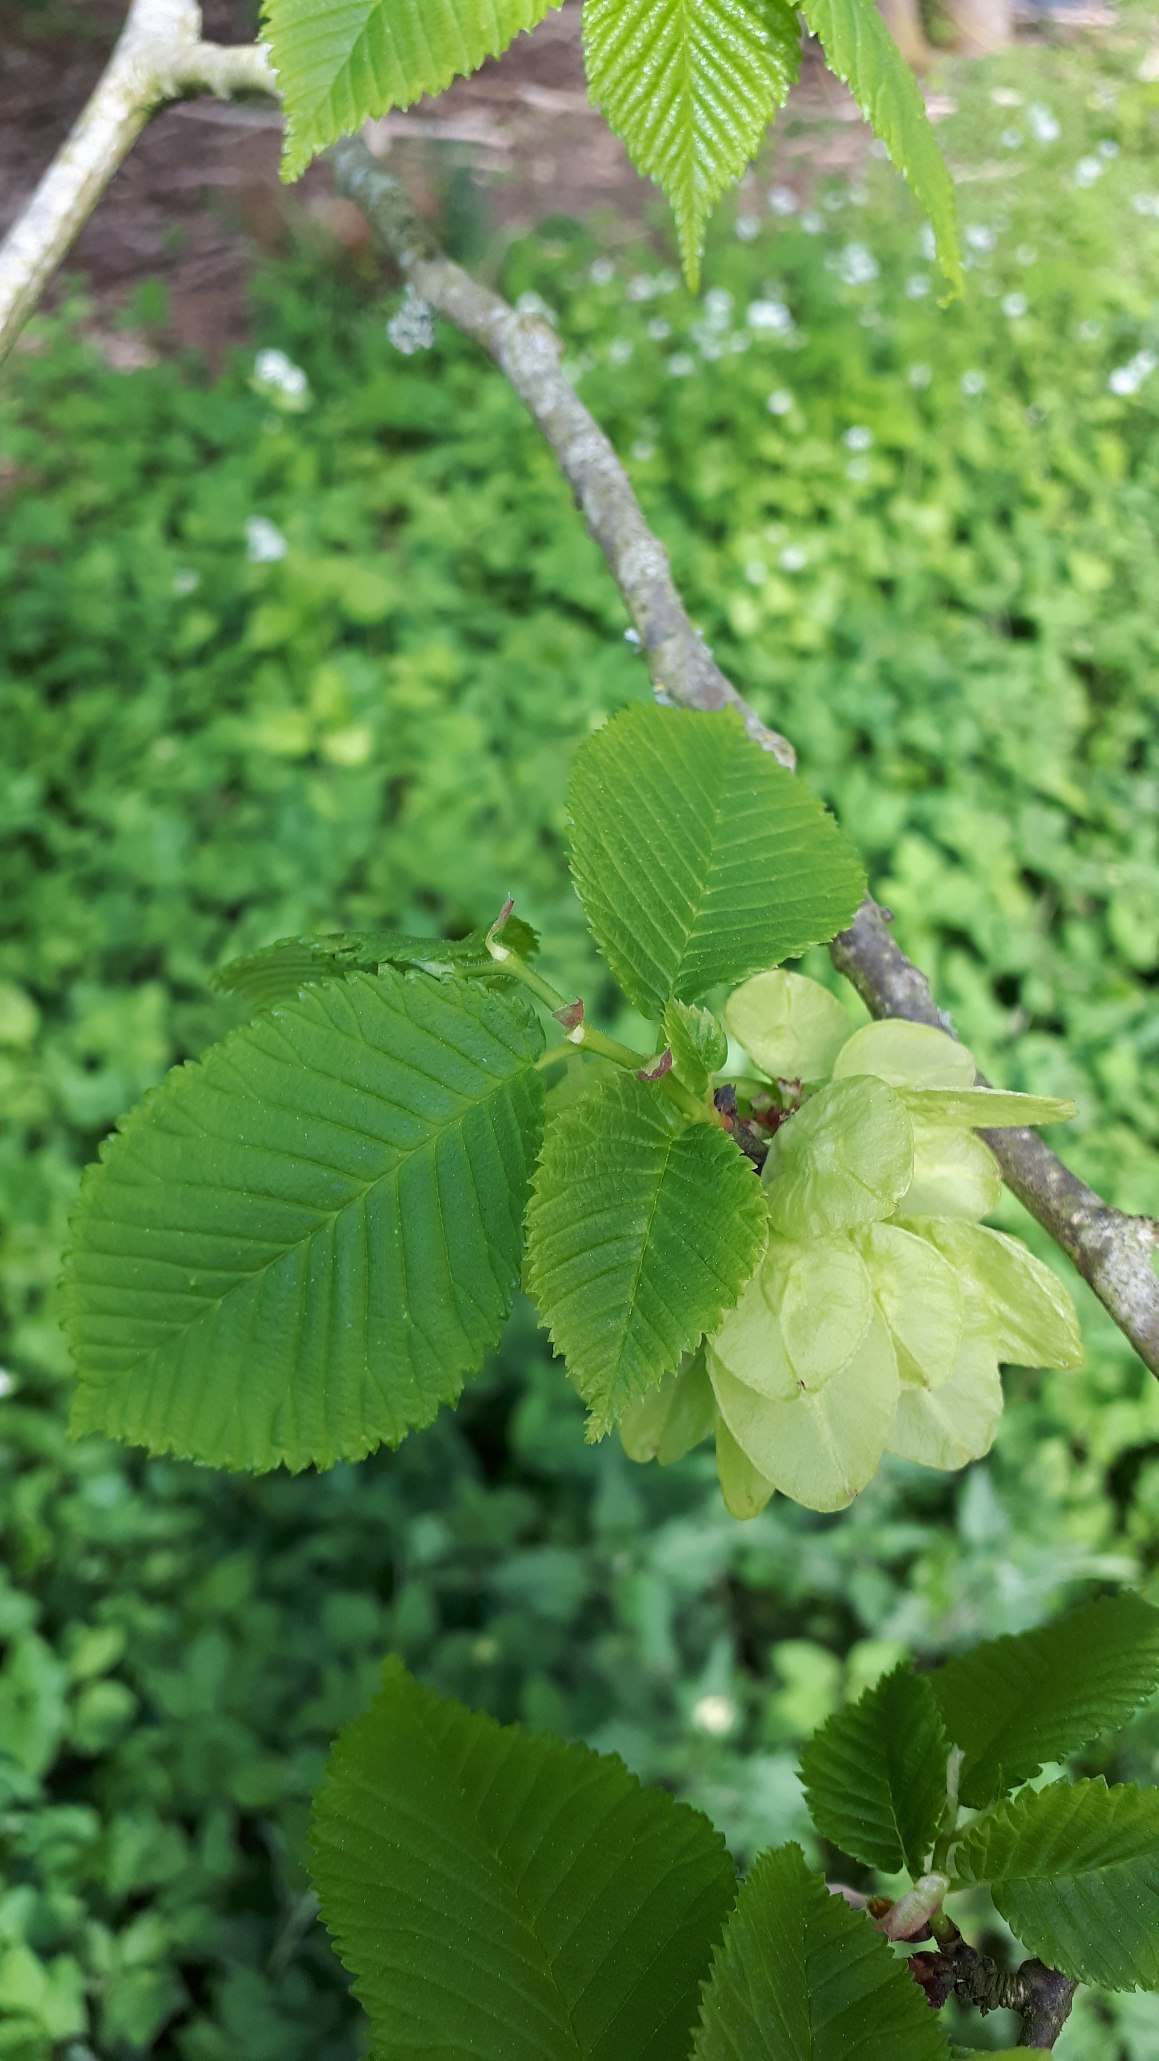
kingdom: Plantae
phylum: Tracheophyta
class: Magnoliopsida
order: Rosales
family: Ulmaceae
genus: Ulmus
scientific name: Ulmus glabra
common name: Skov-elm/storbladet elm
